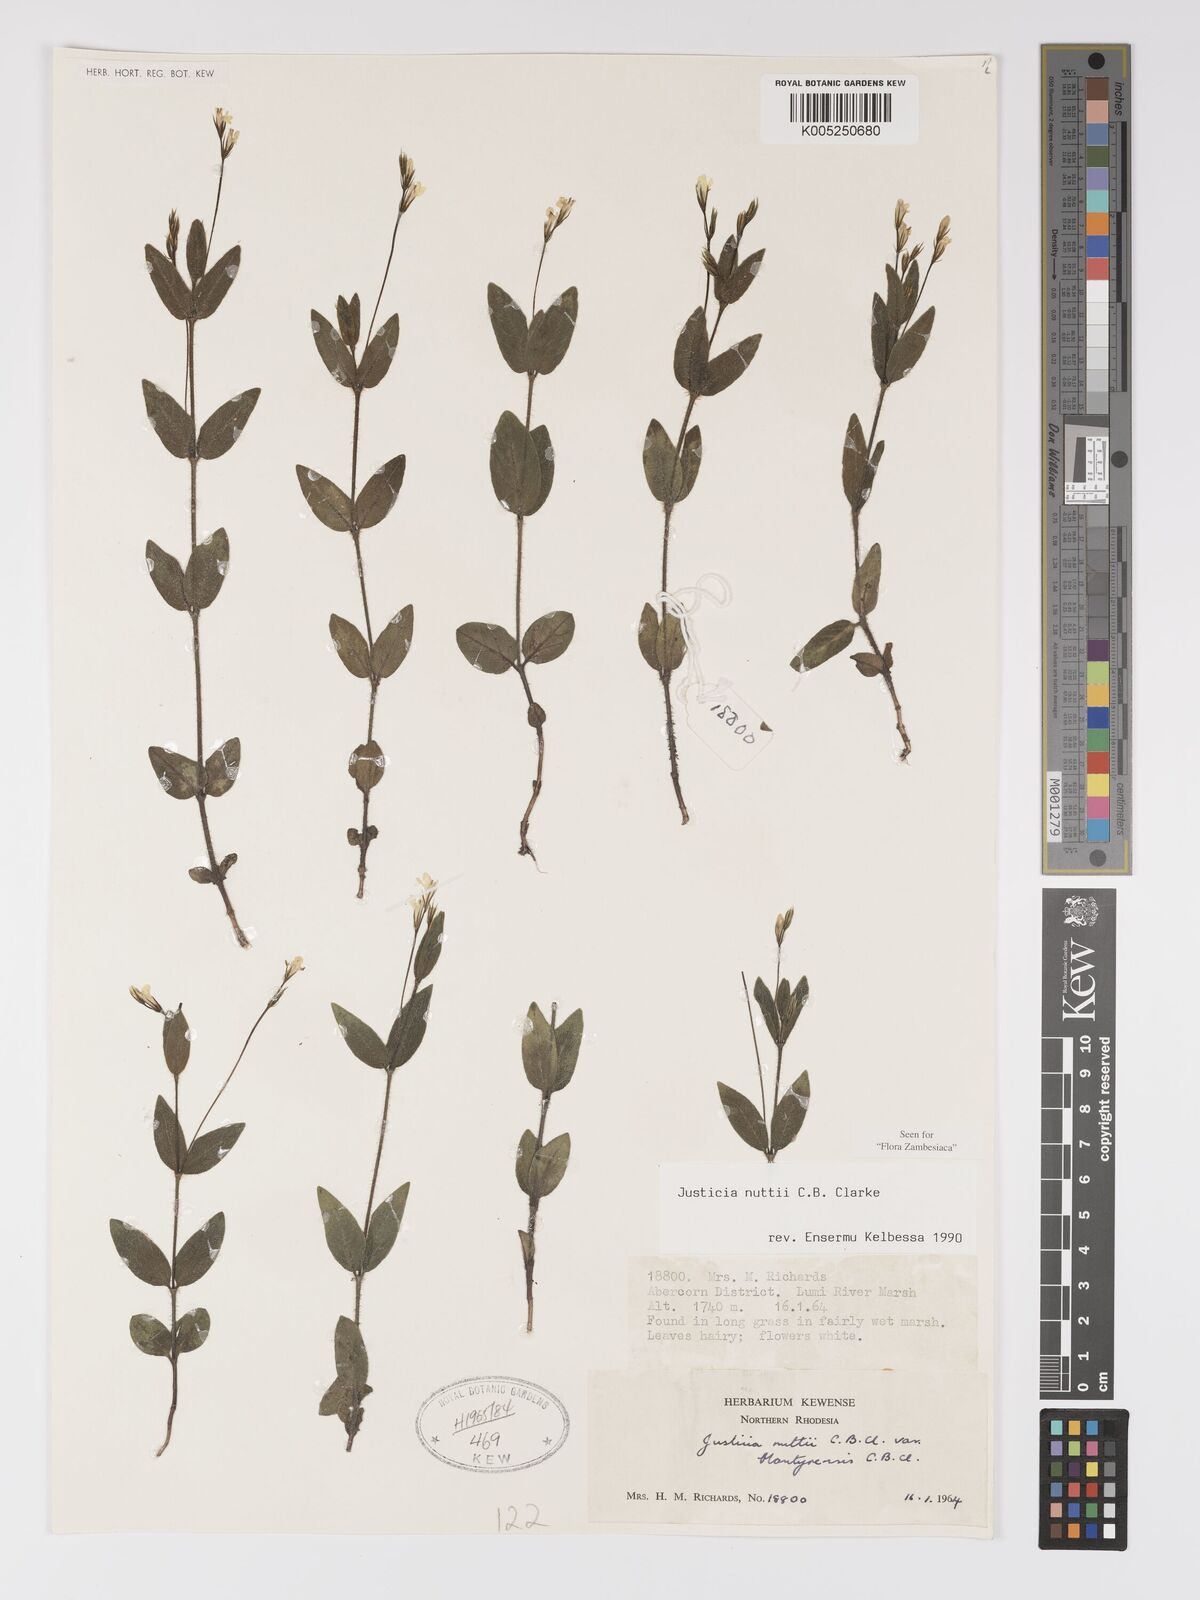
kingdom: Plantae
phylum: Tracheophyta
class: Magnoliopsida
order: Lamiales
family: Acanthaceae
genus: Justicia
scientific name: Justicia nuttii
